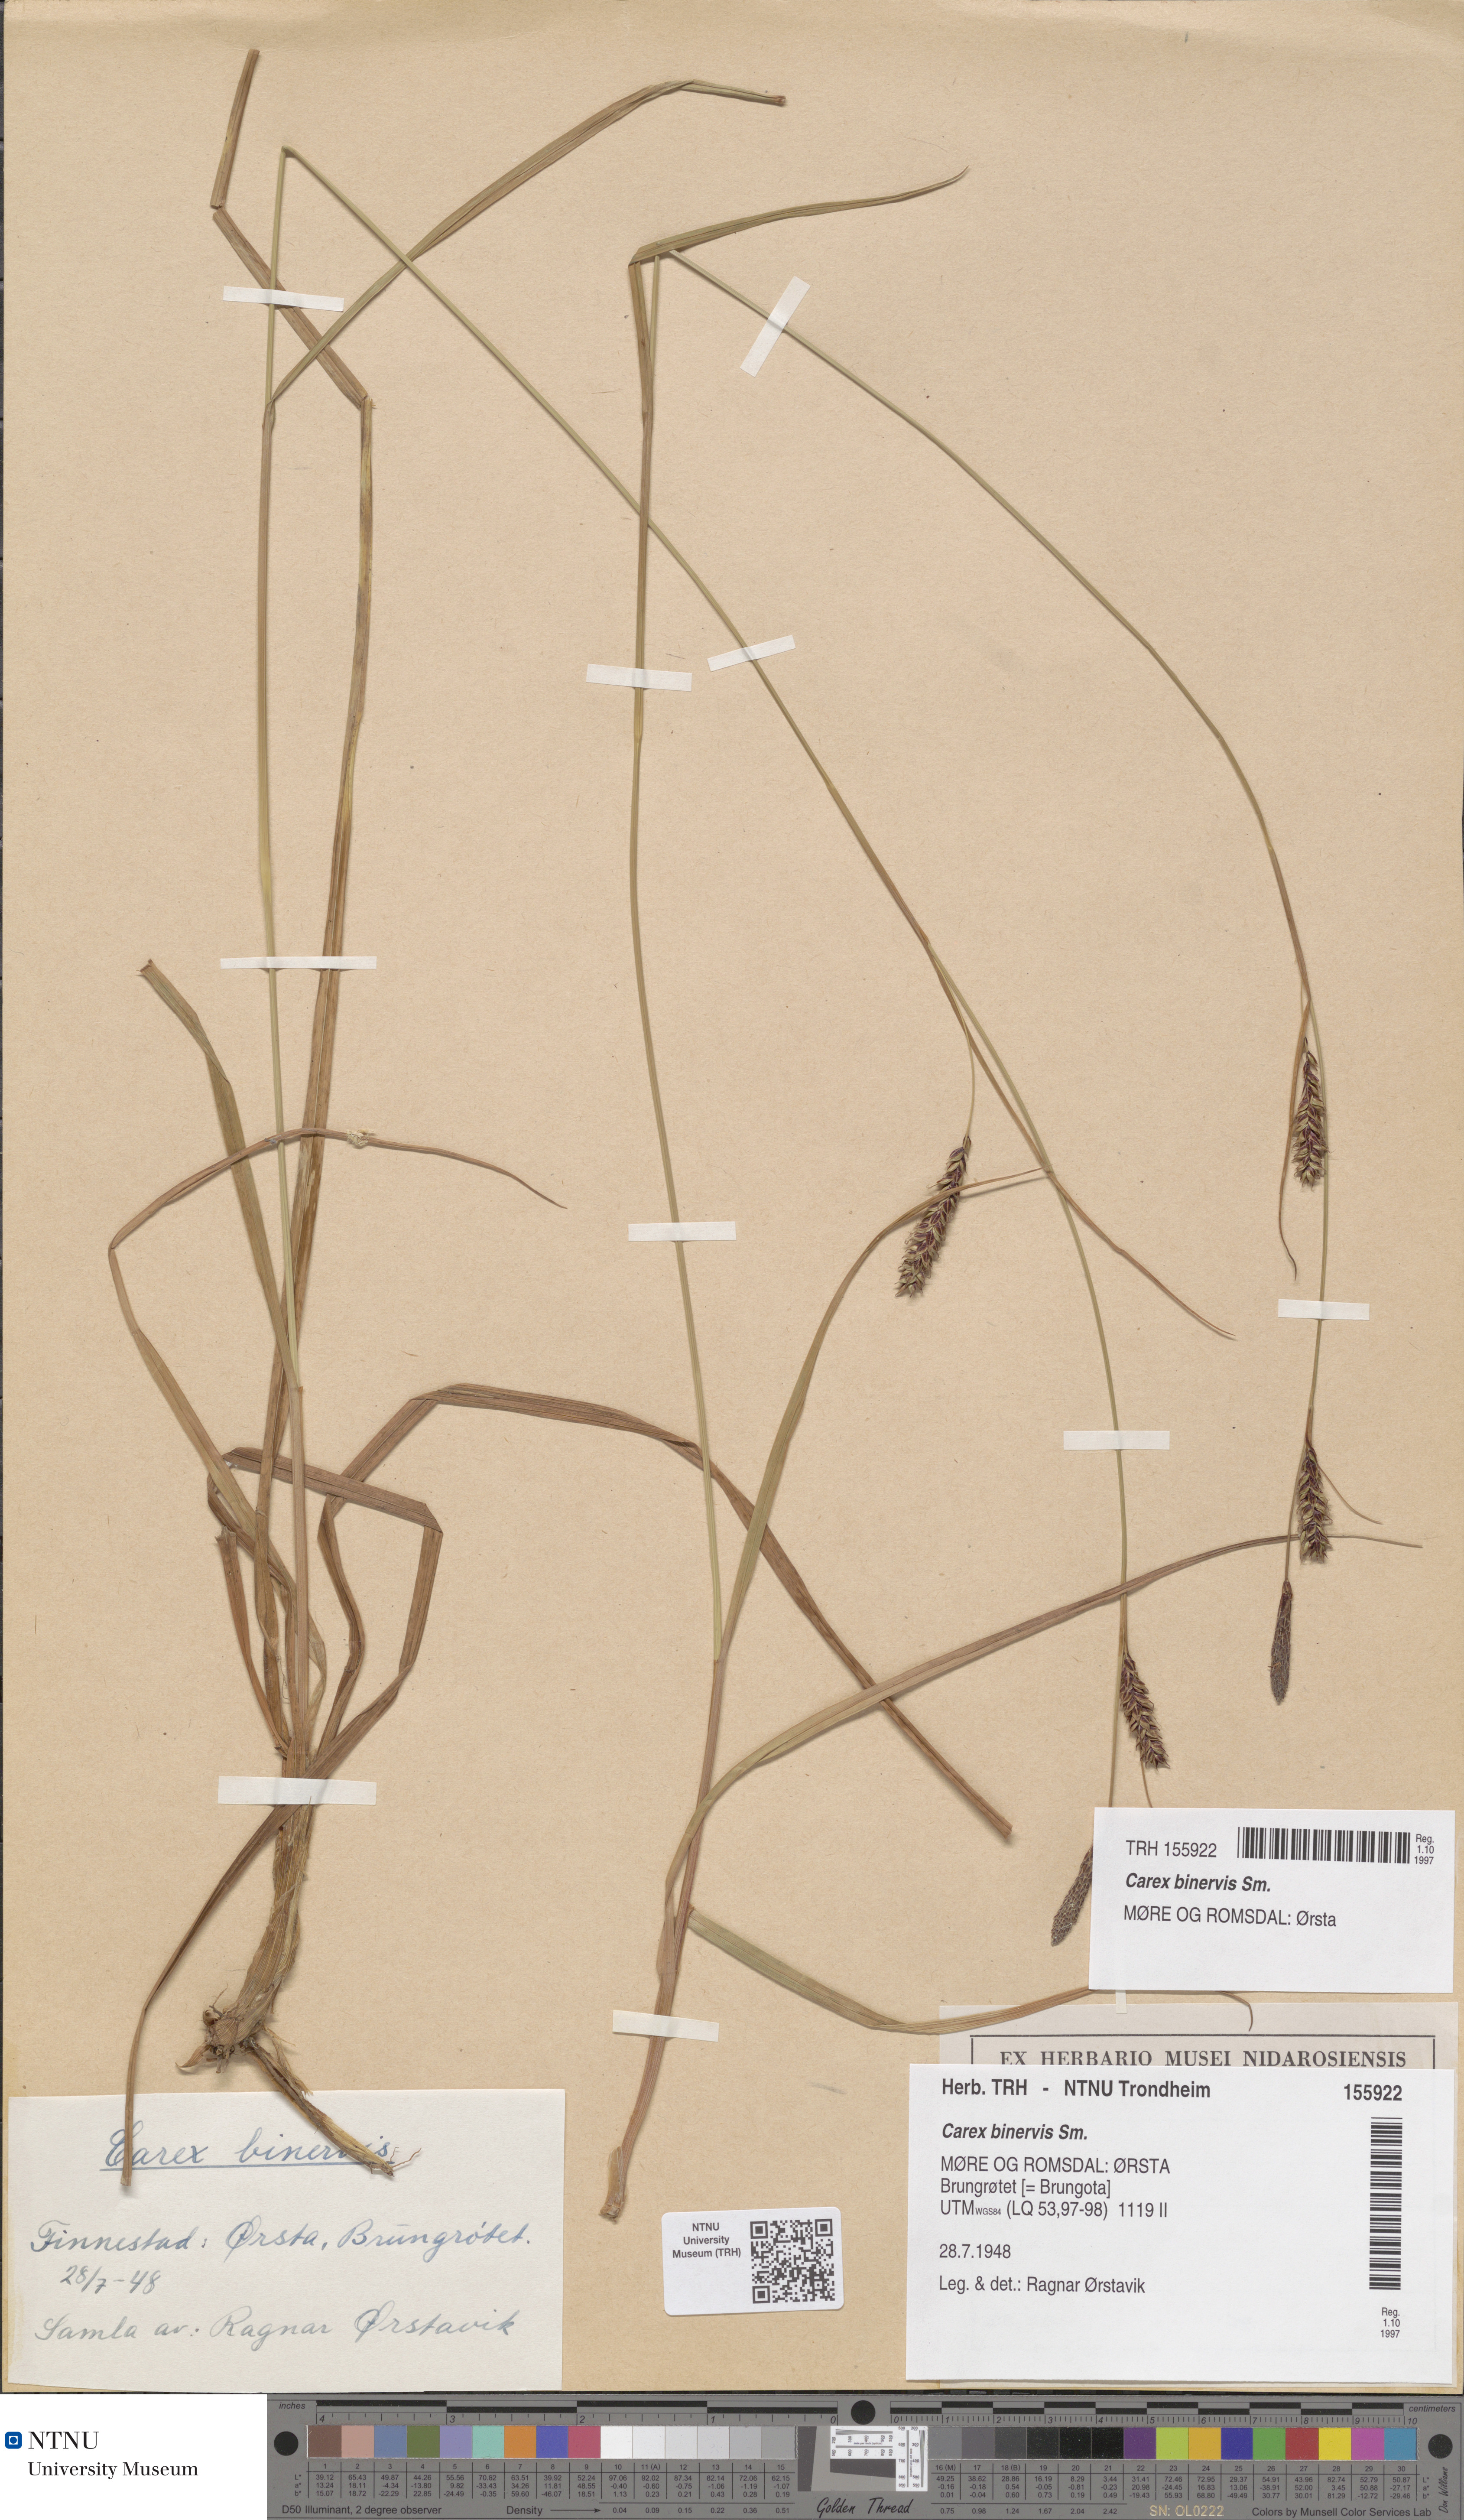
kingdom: Plantae
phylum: Tracheophyta
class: Liliopsida
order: Poales
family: Cyperaceae
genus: Carex
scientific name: Carex binervis
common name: Green-ribbed sedge
